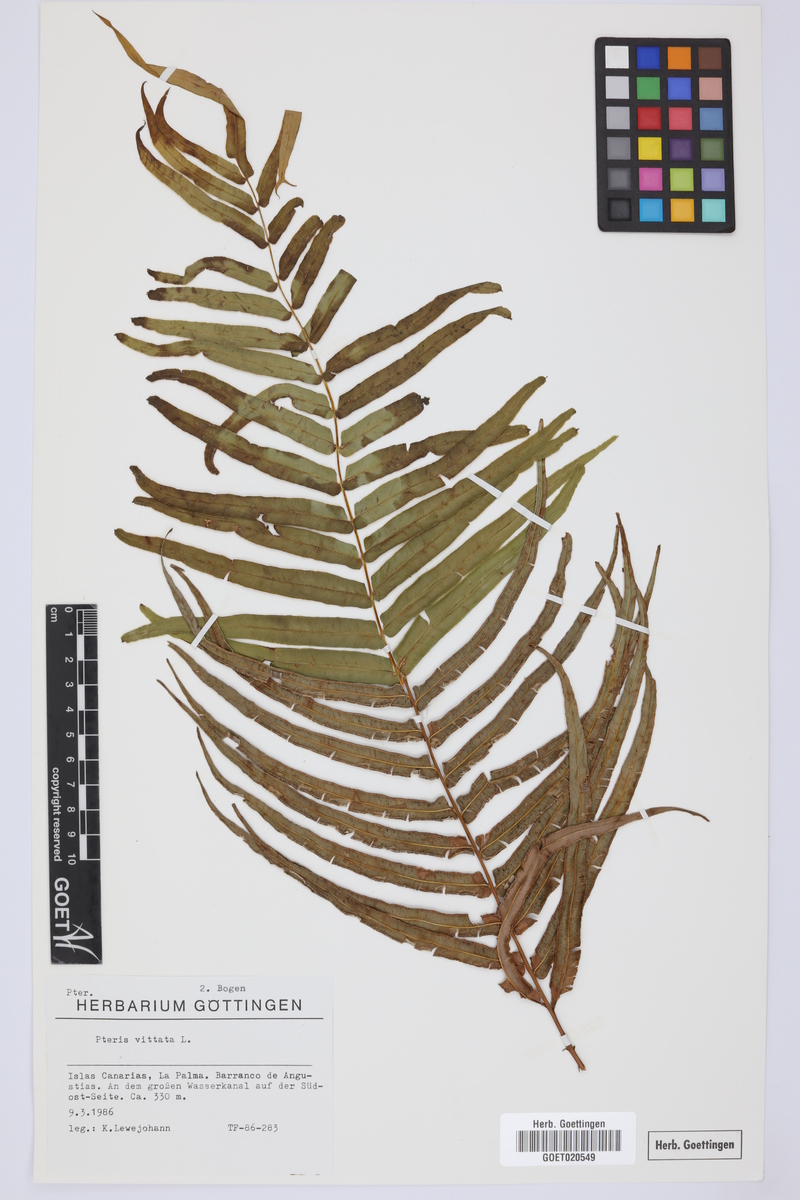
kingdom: Plantae
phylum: Tracheophyta
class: Polypodiopsida
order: Polypodiales
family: Pteridaceae
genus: Pteris
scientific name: Pteris vittata
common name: Ladder brake
